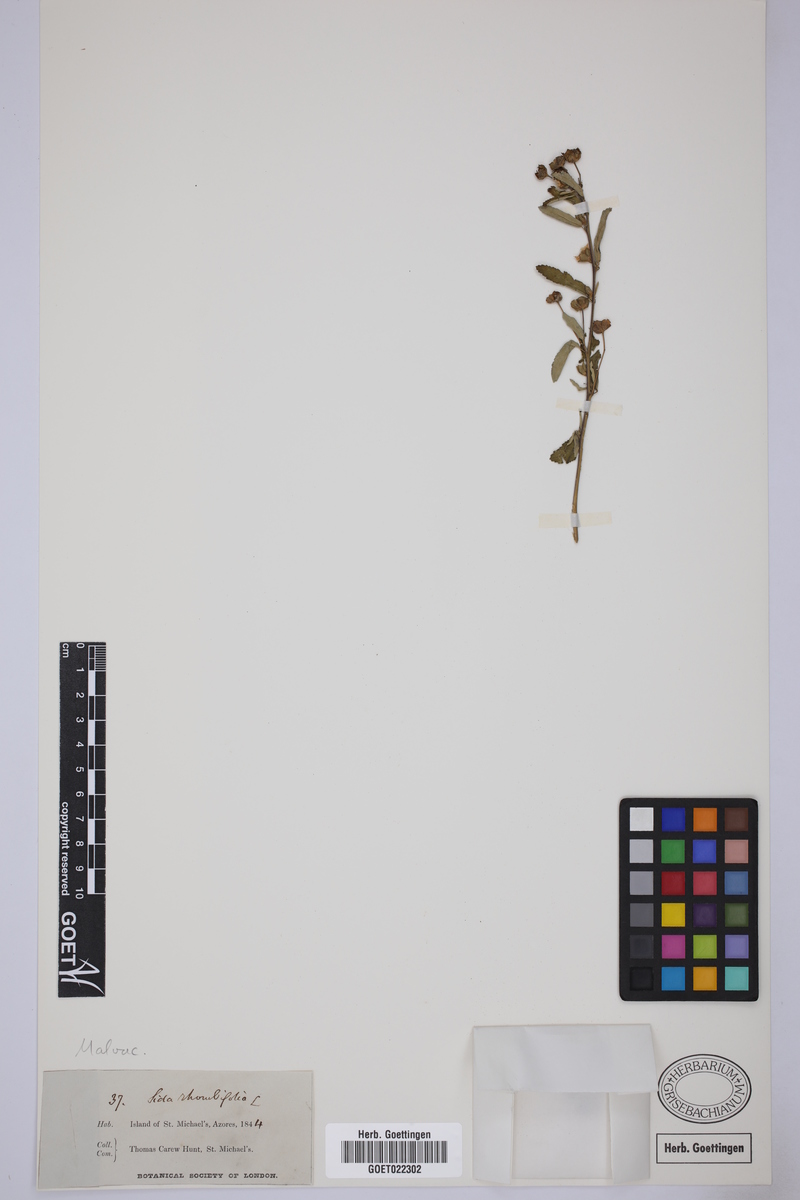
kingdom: Plantae
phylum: Tracheophyta
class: Magnoliopsida
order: Malvales
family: Malvaceae
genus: Sida
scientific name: Sida rhombifolia
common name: Queensland-hemp
